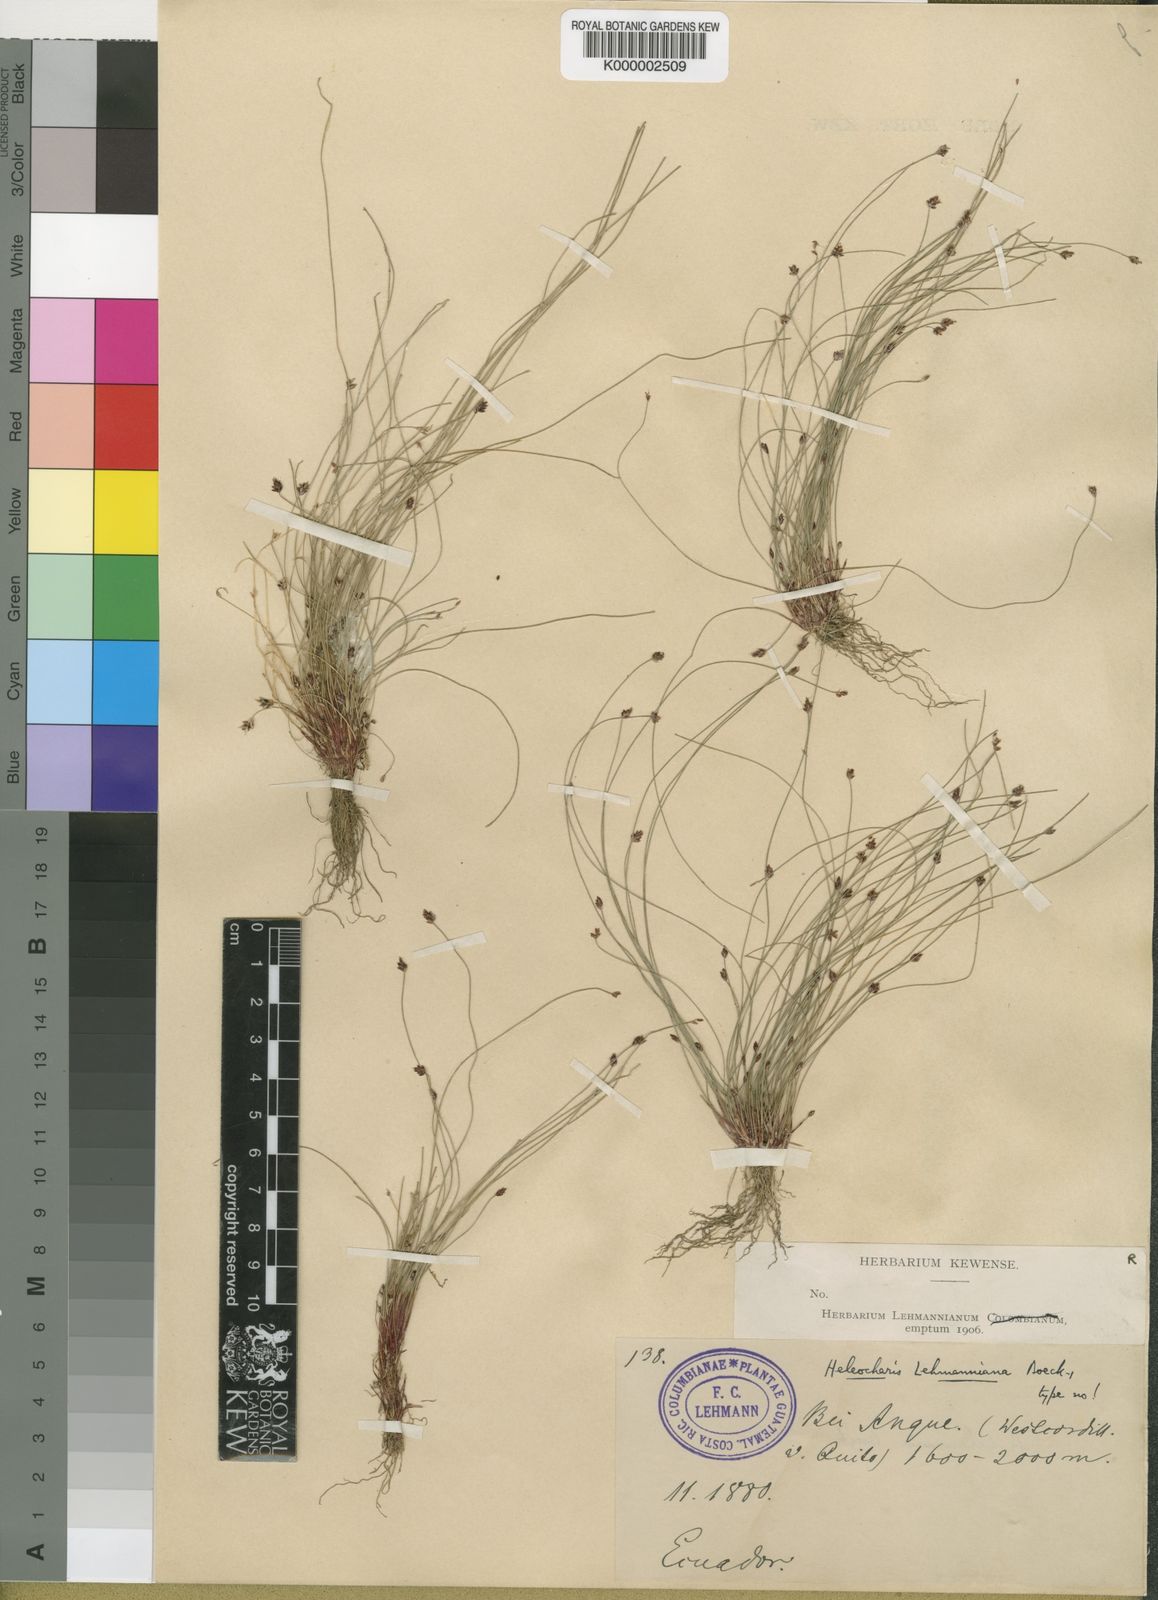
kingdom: Plantae
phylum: Tracheophyta
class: Liliopsida
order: Poales
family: Cyperaceae
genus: Eleocharis
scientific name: Eleocharis maculosa
